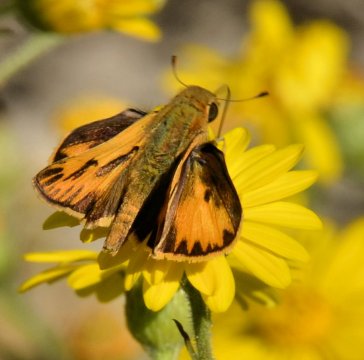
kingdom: Animalia
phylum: Arthropoda
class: Insecta
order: Lepidoptera
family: Hesperiidae
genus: Hylephila
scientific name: Hylephila phyleus
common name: Fiery Skipper
